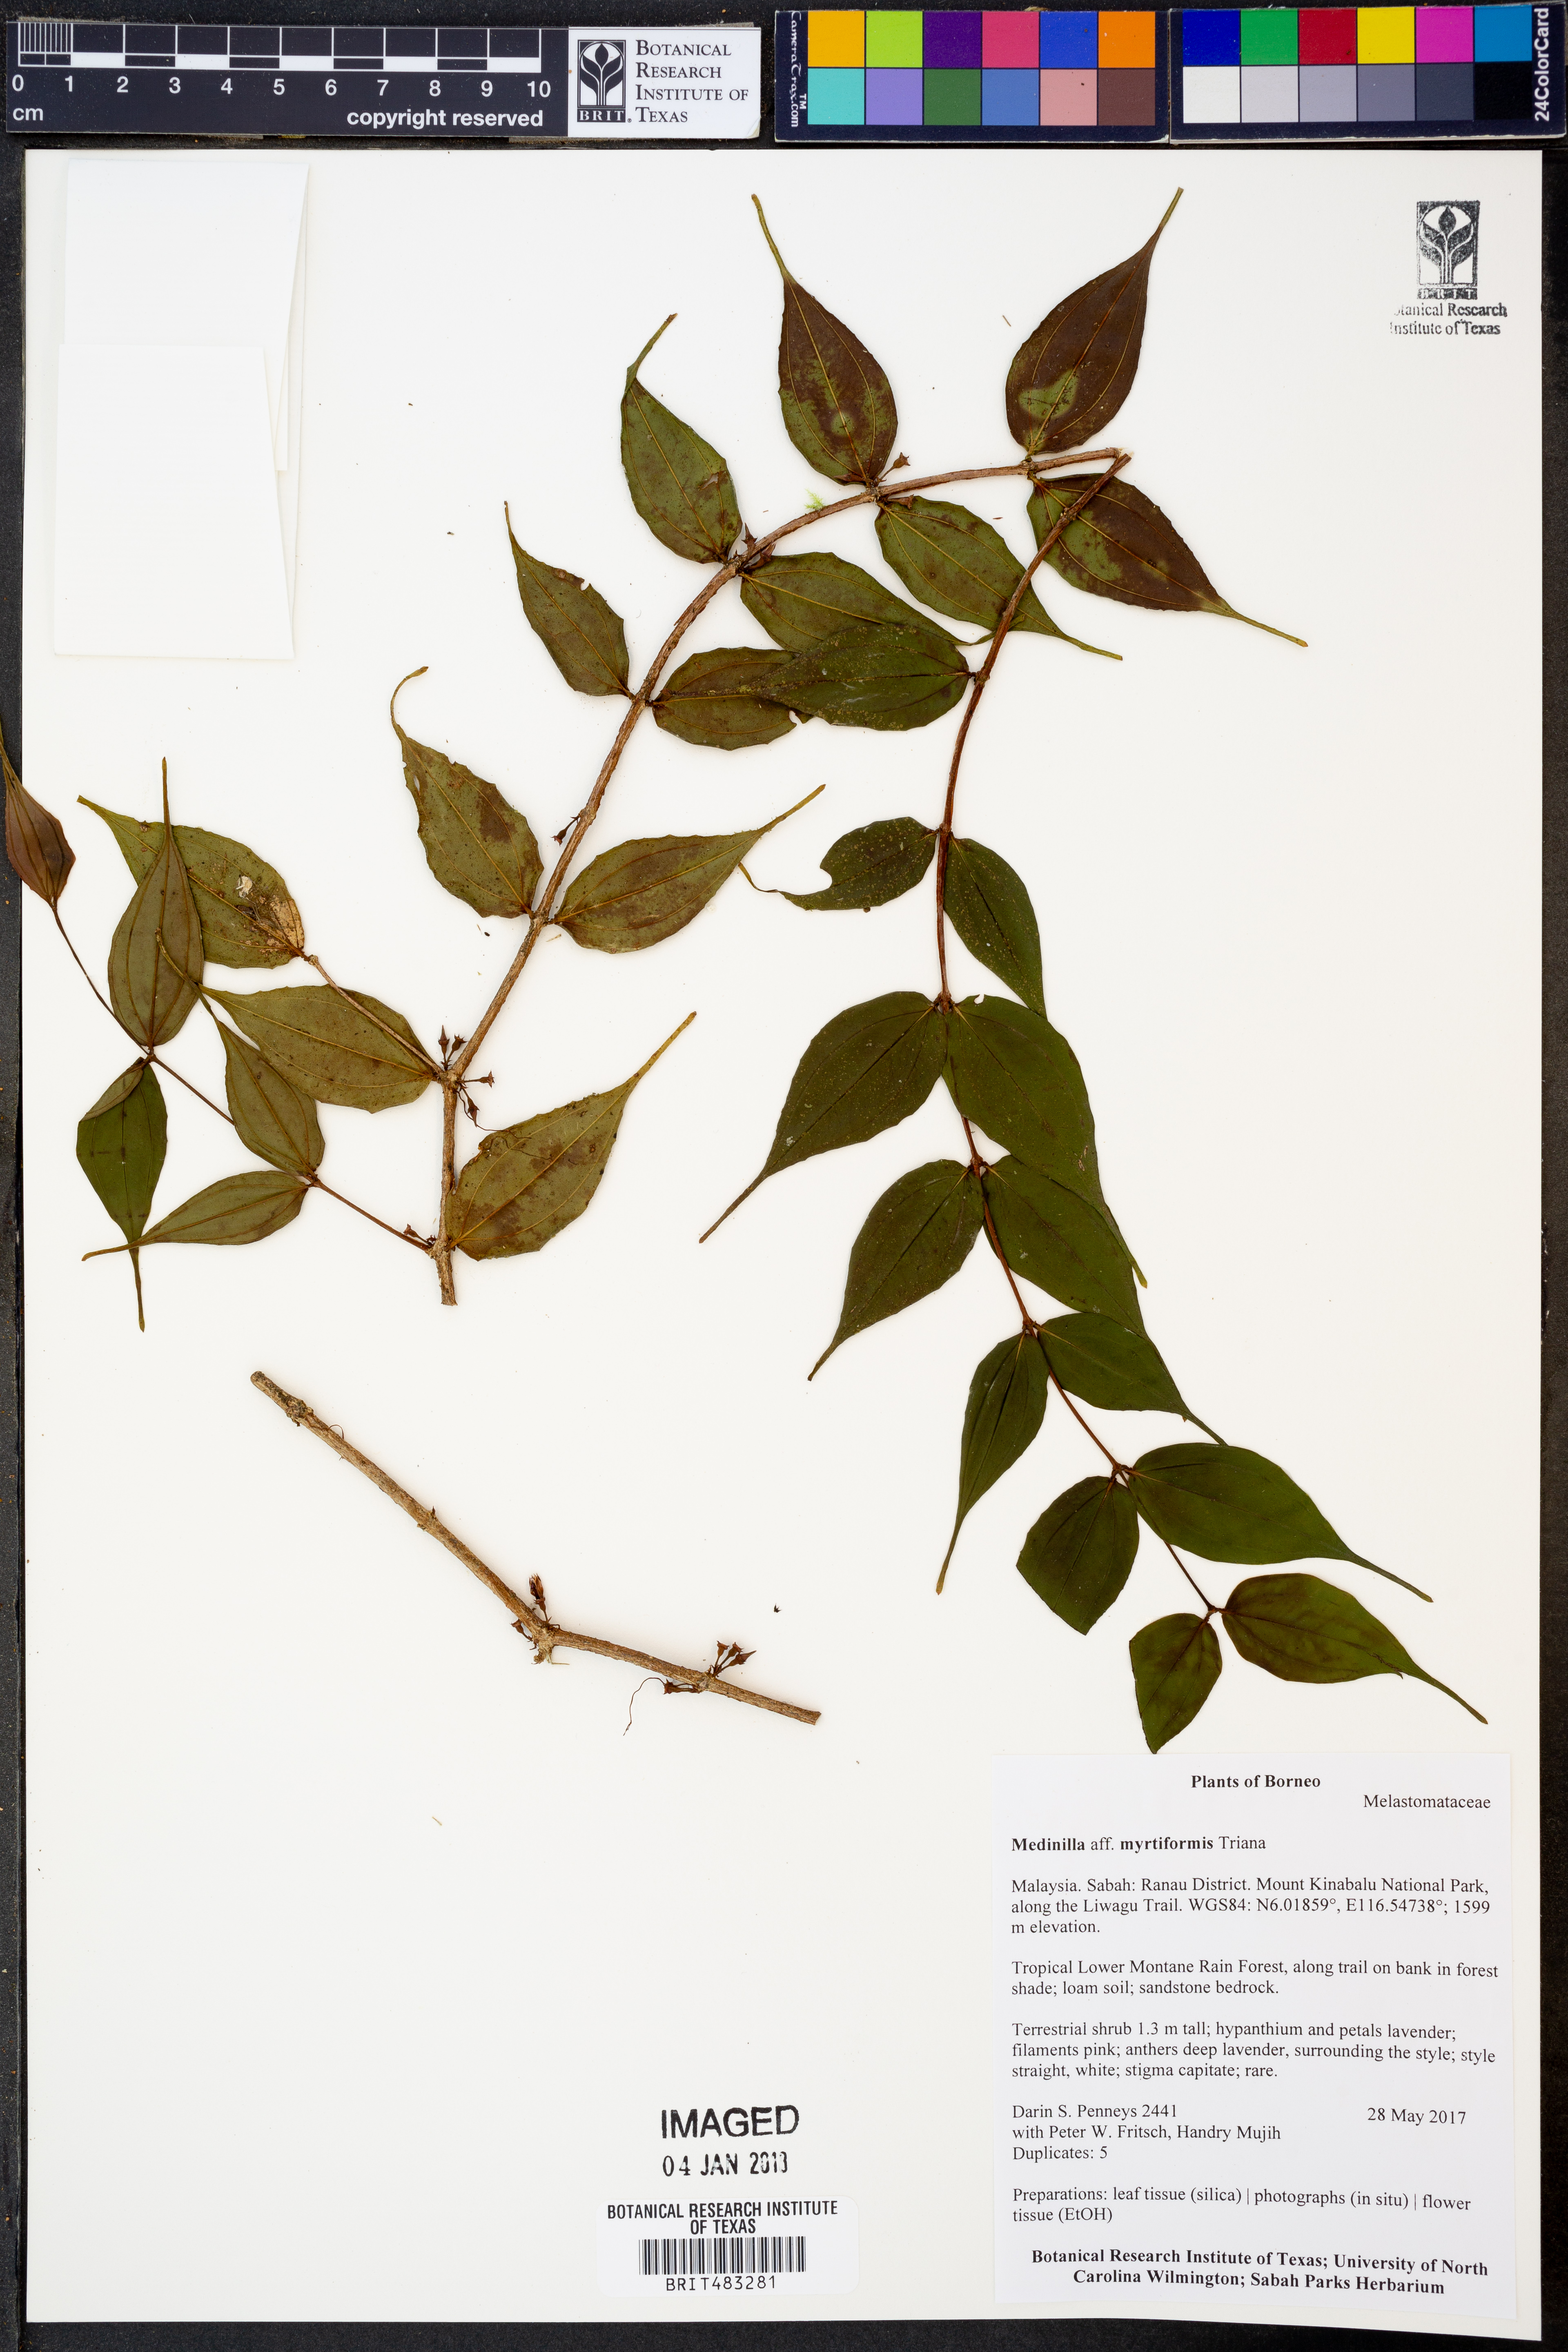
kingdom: Plantae
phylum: Tracheophyta
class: Magnoliopsida
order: Myrtales
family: Melastomataceae
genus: Medinilla
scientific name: Medinilla myrtiformis
